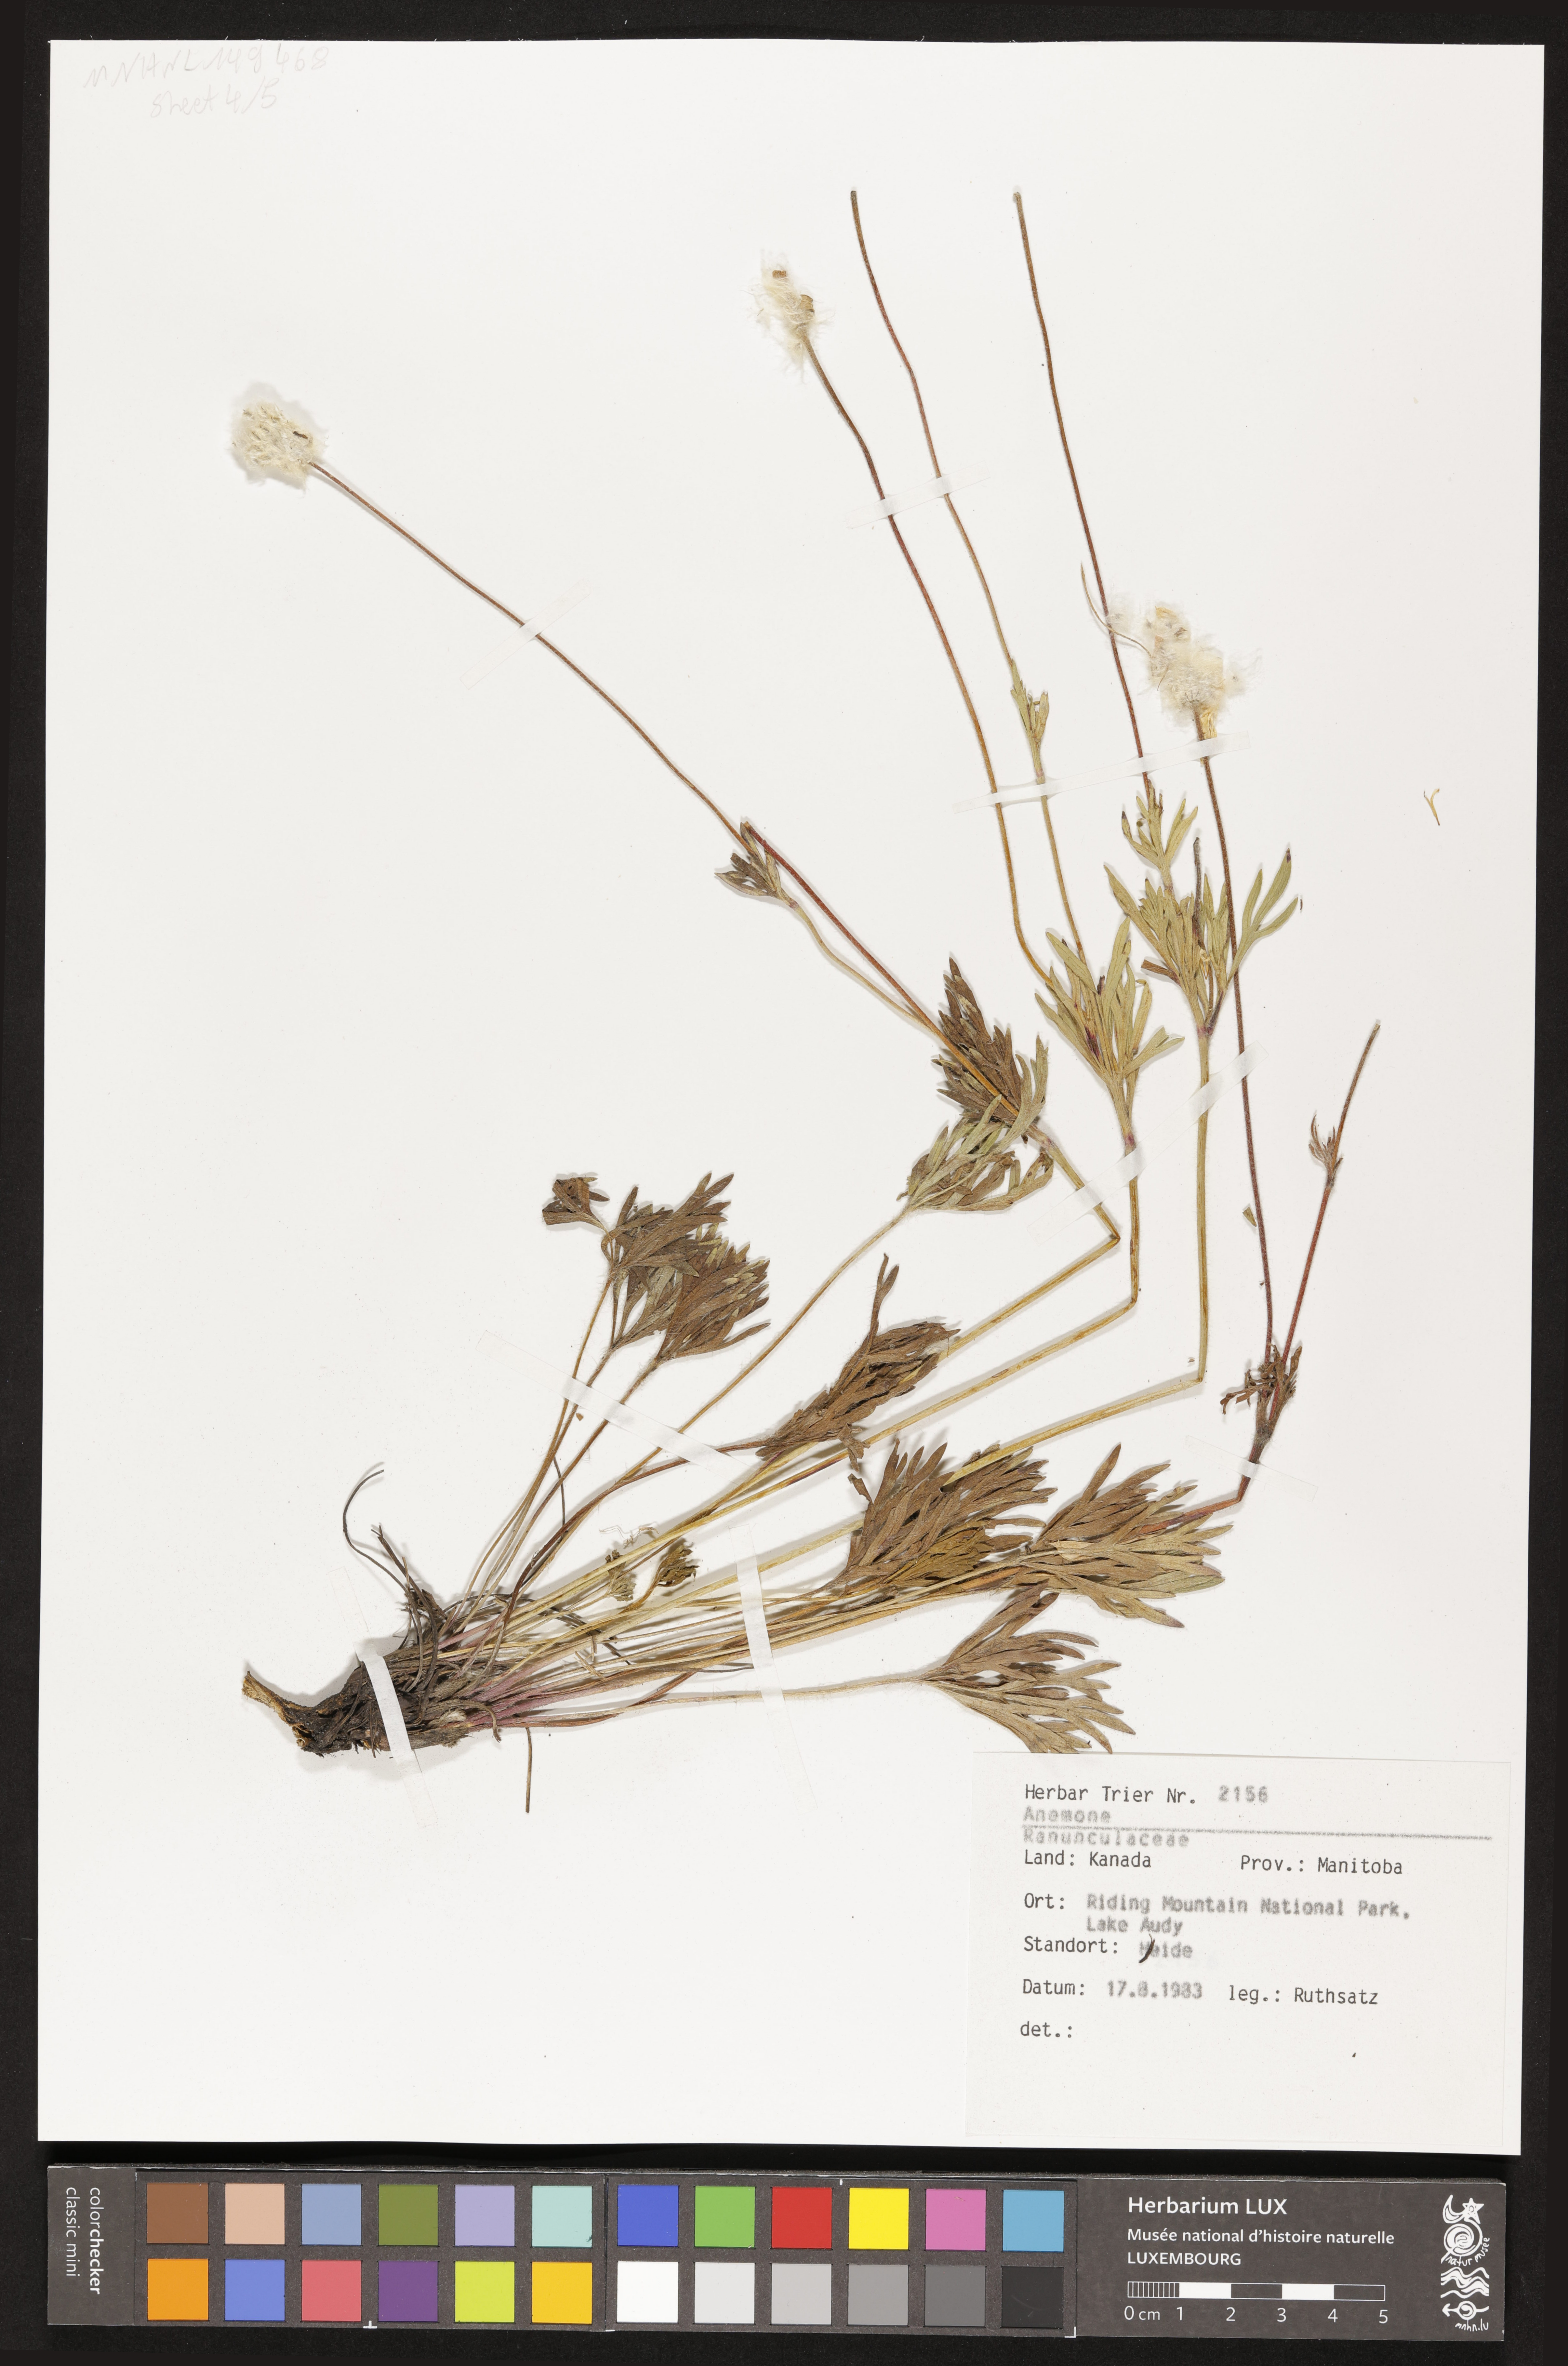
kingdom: Plantae
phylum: Tracheophyta
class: Magnoliopsida
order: Ranunculales
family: Ranunculaceae
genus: Anemone
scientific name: Anemone
